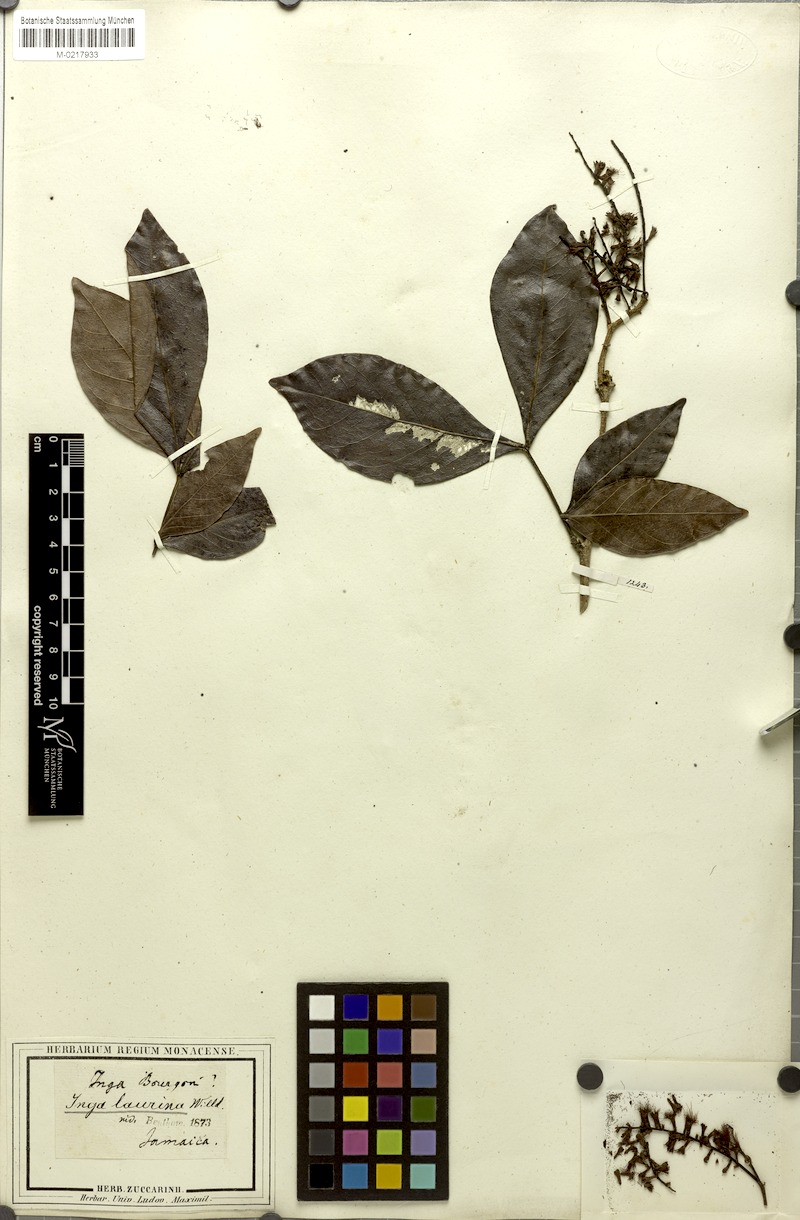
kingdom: Plantae
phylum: Tracheophyta
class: Magnoliopsida
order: Fabales
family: Fabaceae
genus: Inga
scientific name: Inga laurina
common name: Red wood
